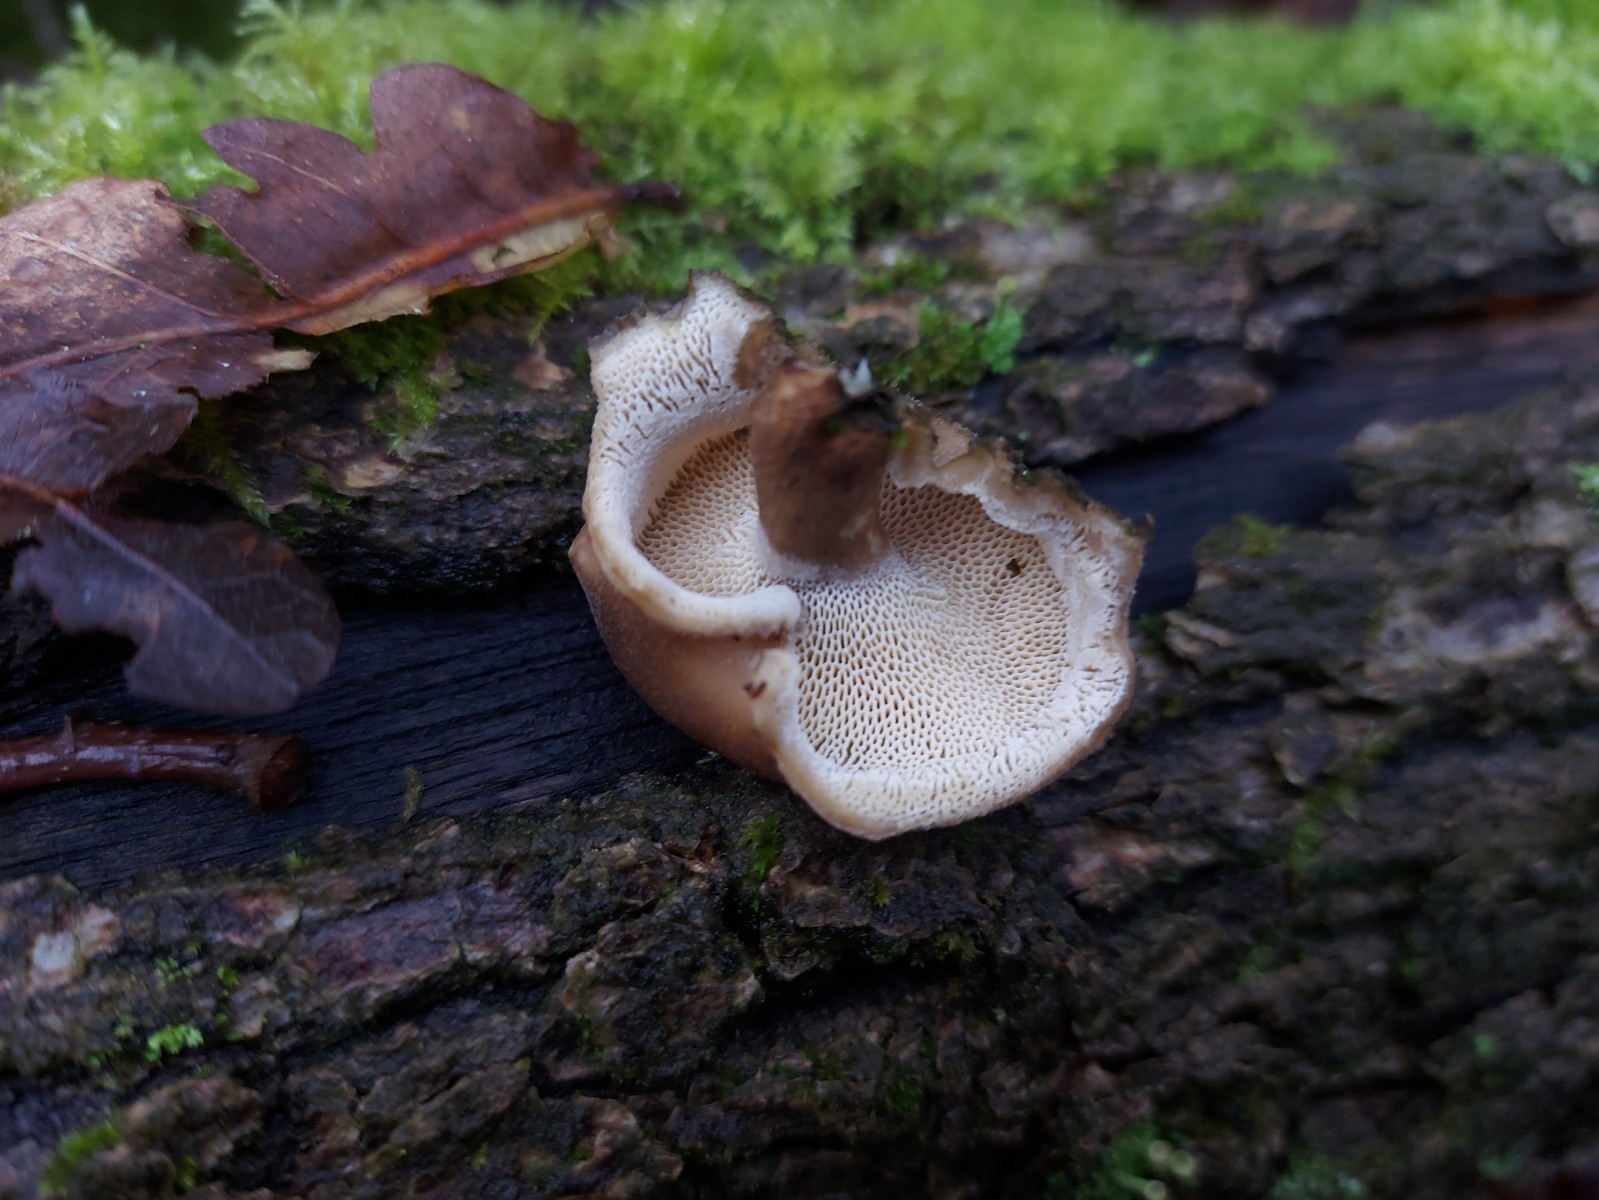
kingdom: Fungi
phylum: Basidiomycota
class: Agaricomycetes
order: Polyporales
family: Polyporaceae
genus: Lentinus
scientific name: Lentinus brumalis
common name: vinter-stilkporesvamp
